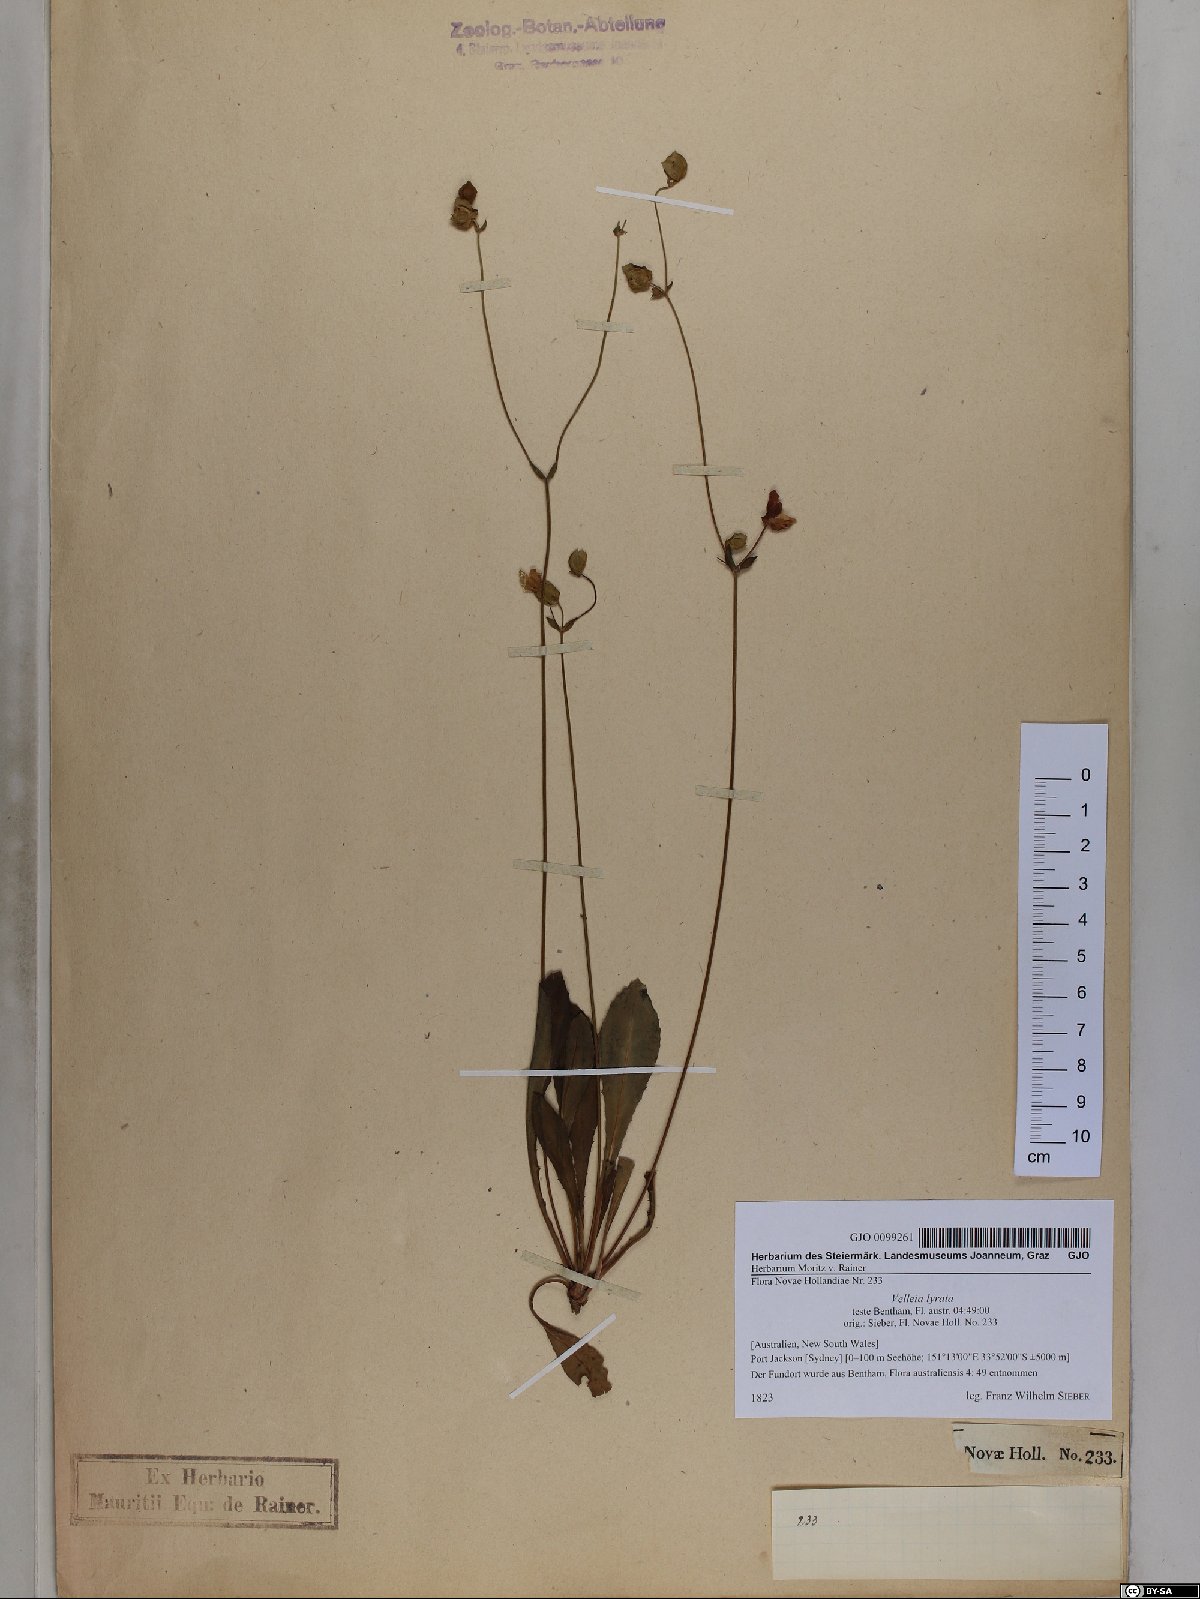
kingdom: Plantae
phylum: Tracheophyta
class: Magnoliopsida
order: Asterales
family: Goodeniaceae
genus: Goodenia
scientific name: Goodenia caroliniana
